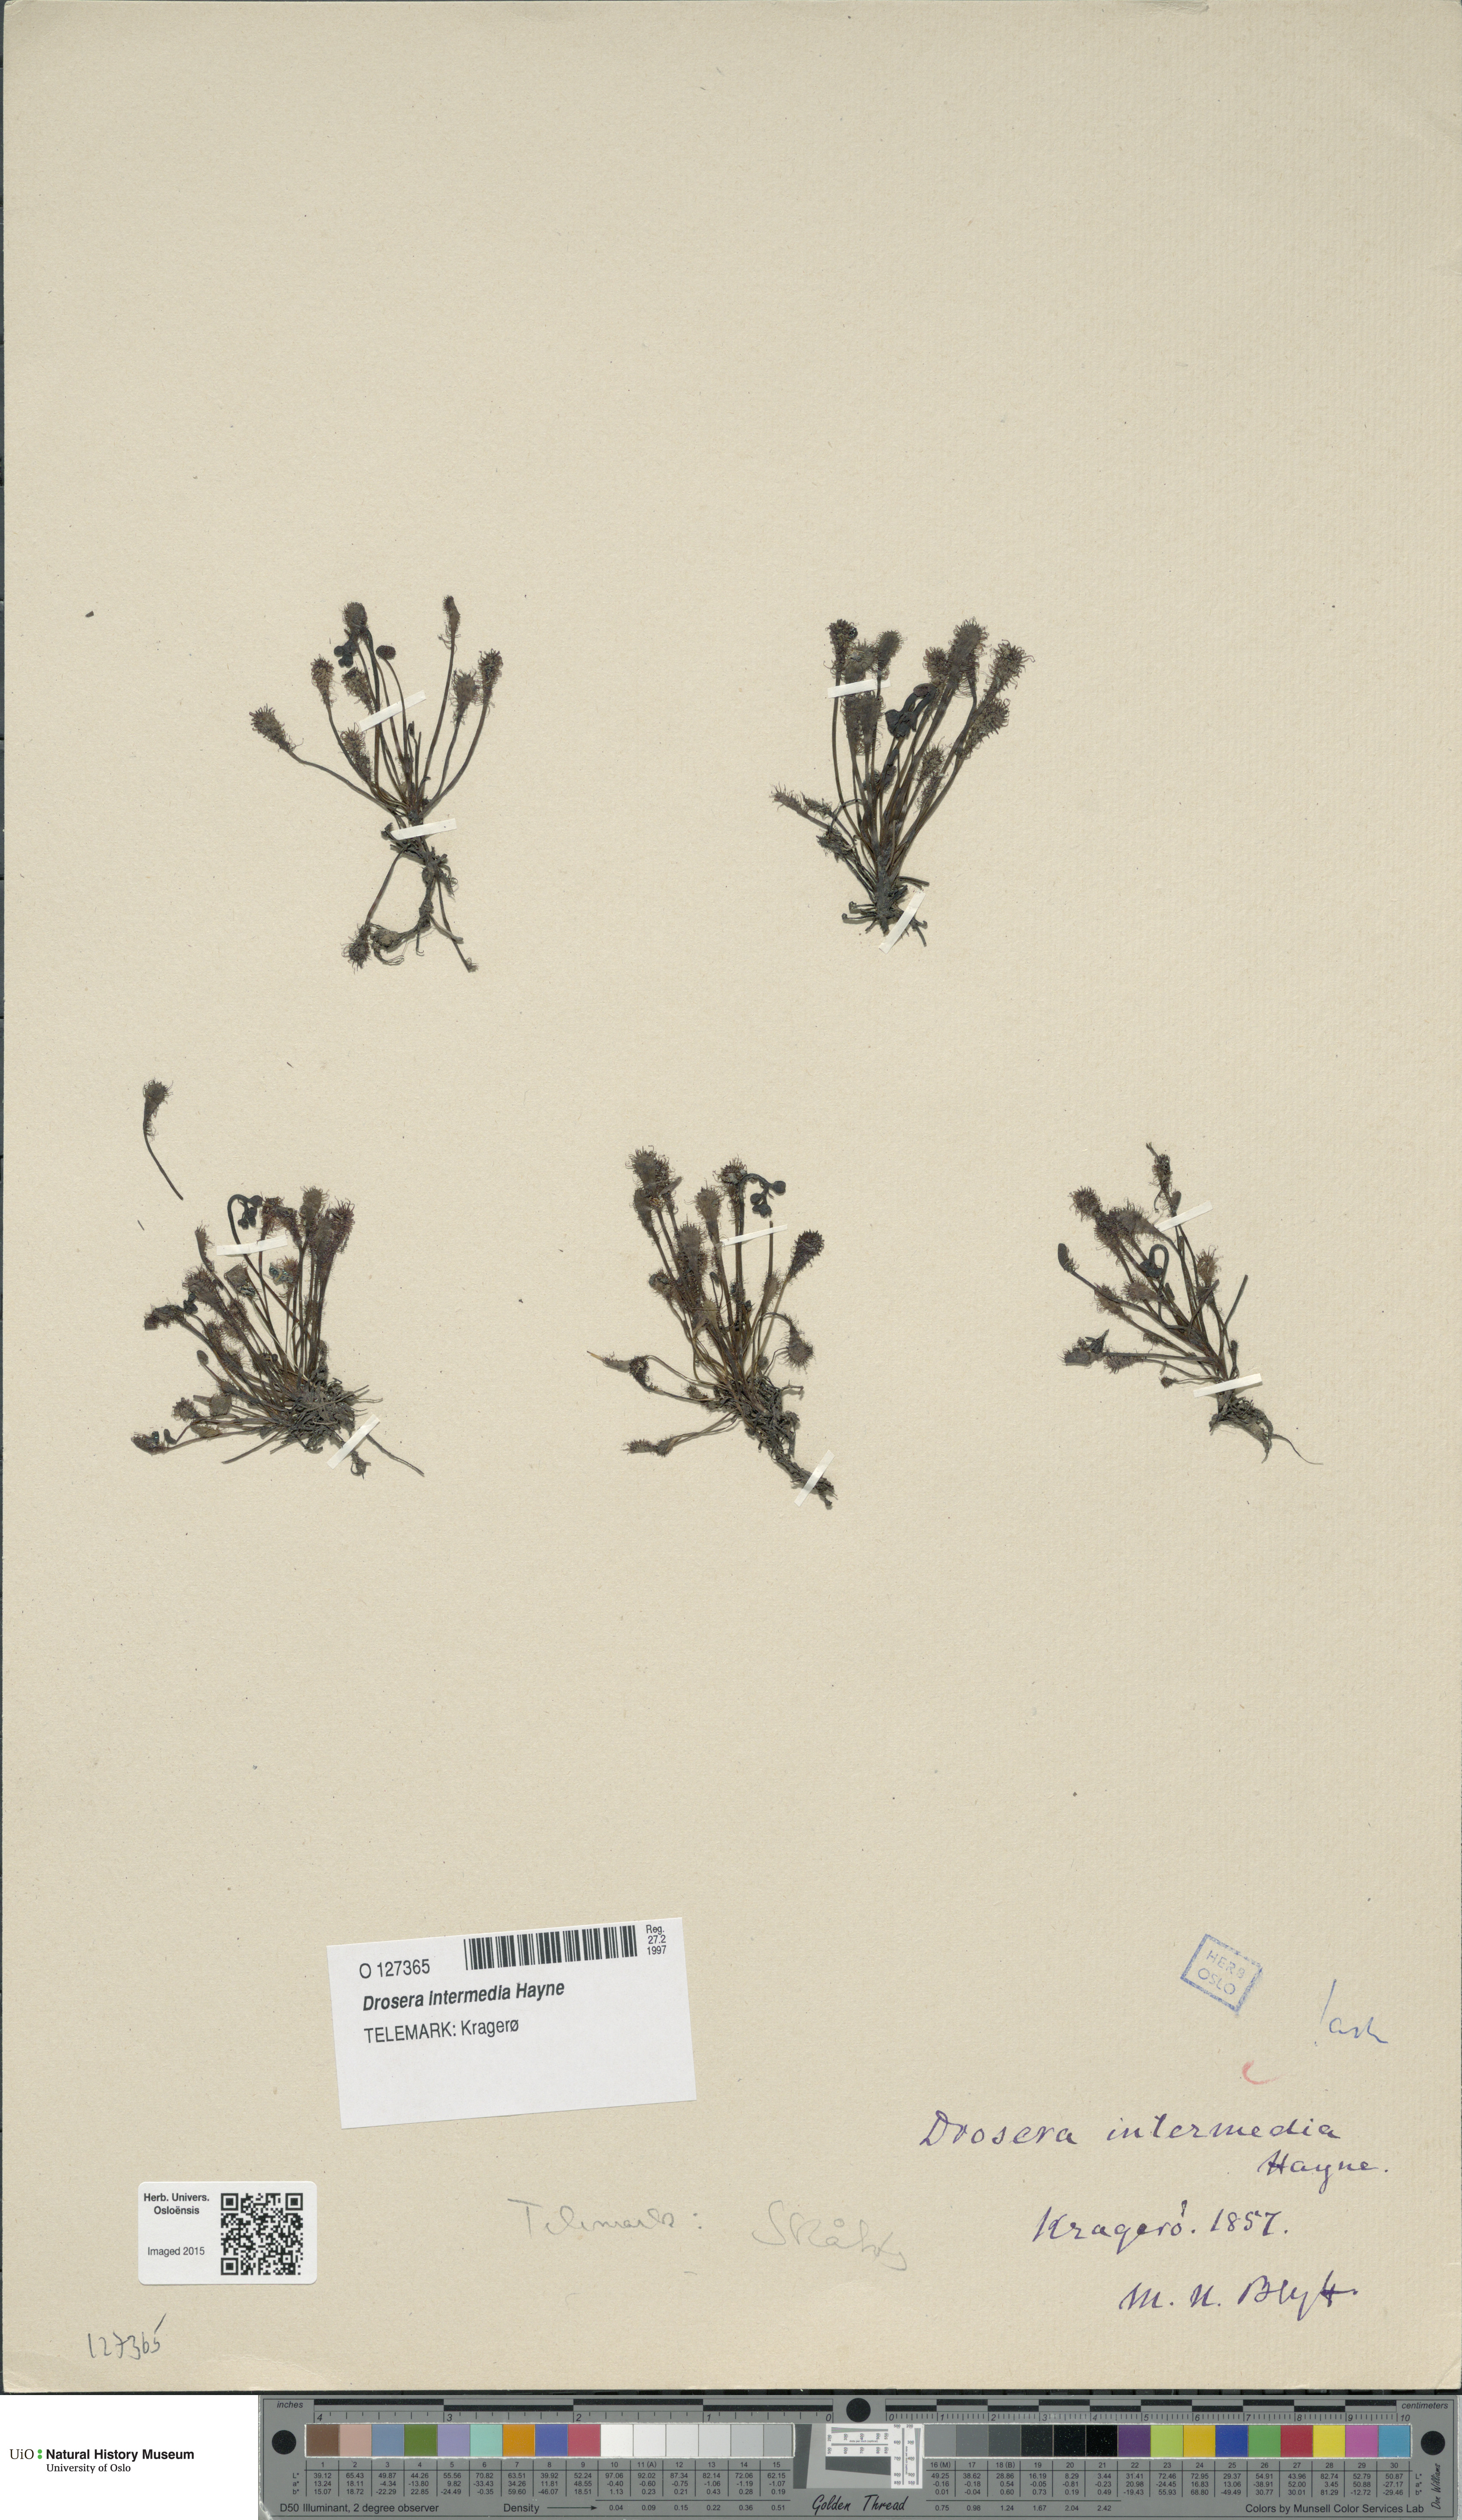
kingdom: Plantae
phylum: Tracheophyta
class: Magnoliopsida
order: Caryophyllales
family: Droseraceae
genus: Drosera
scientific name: Drosera intermedia
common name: Oblong-leaved sundew
